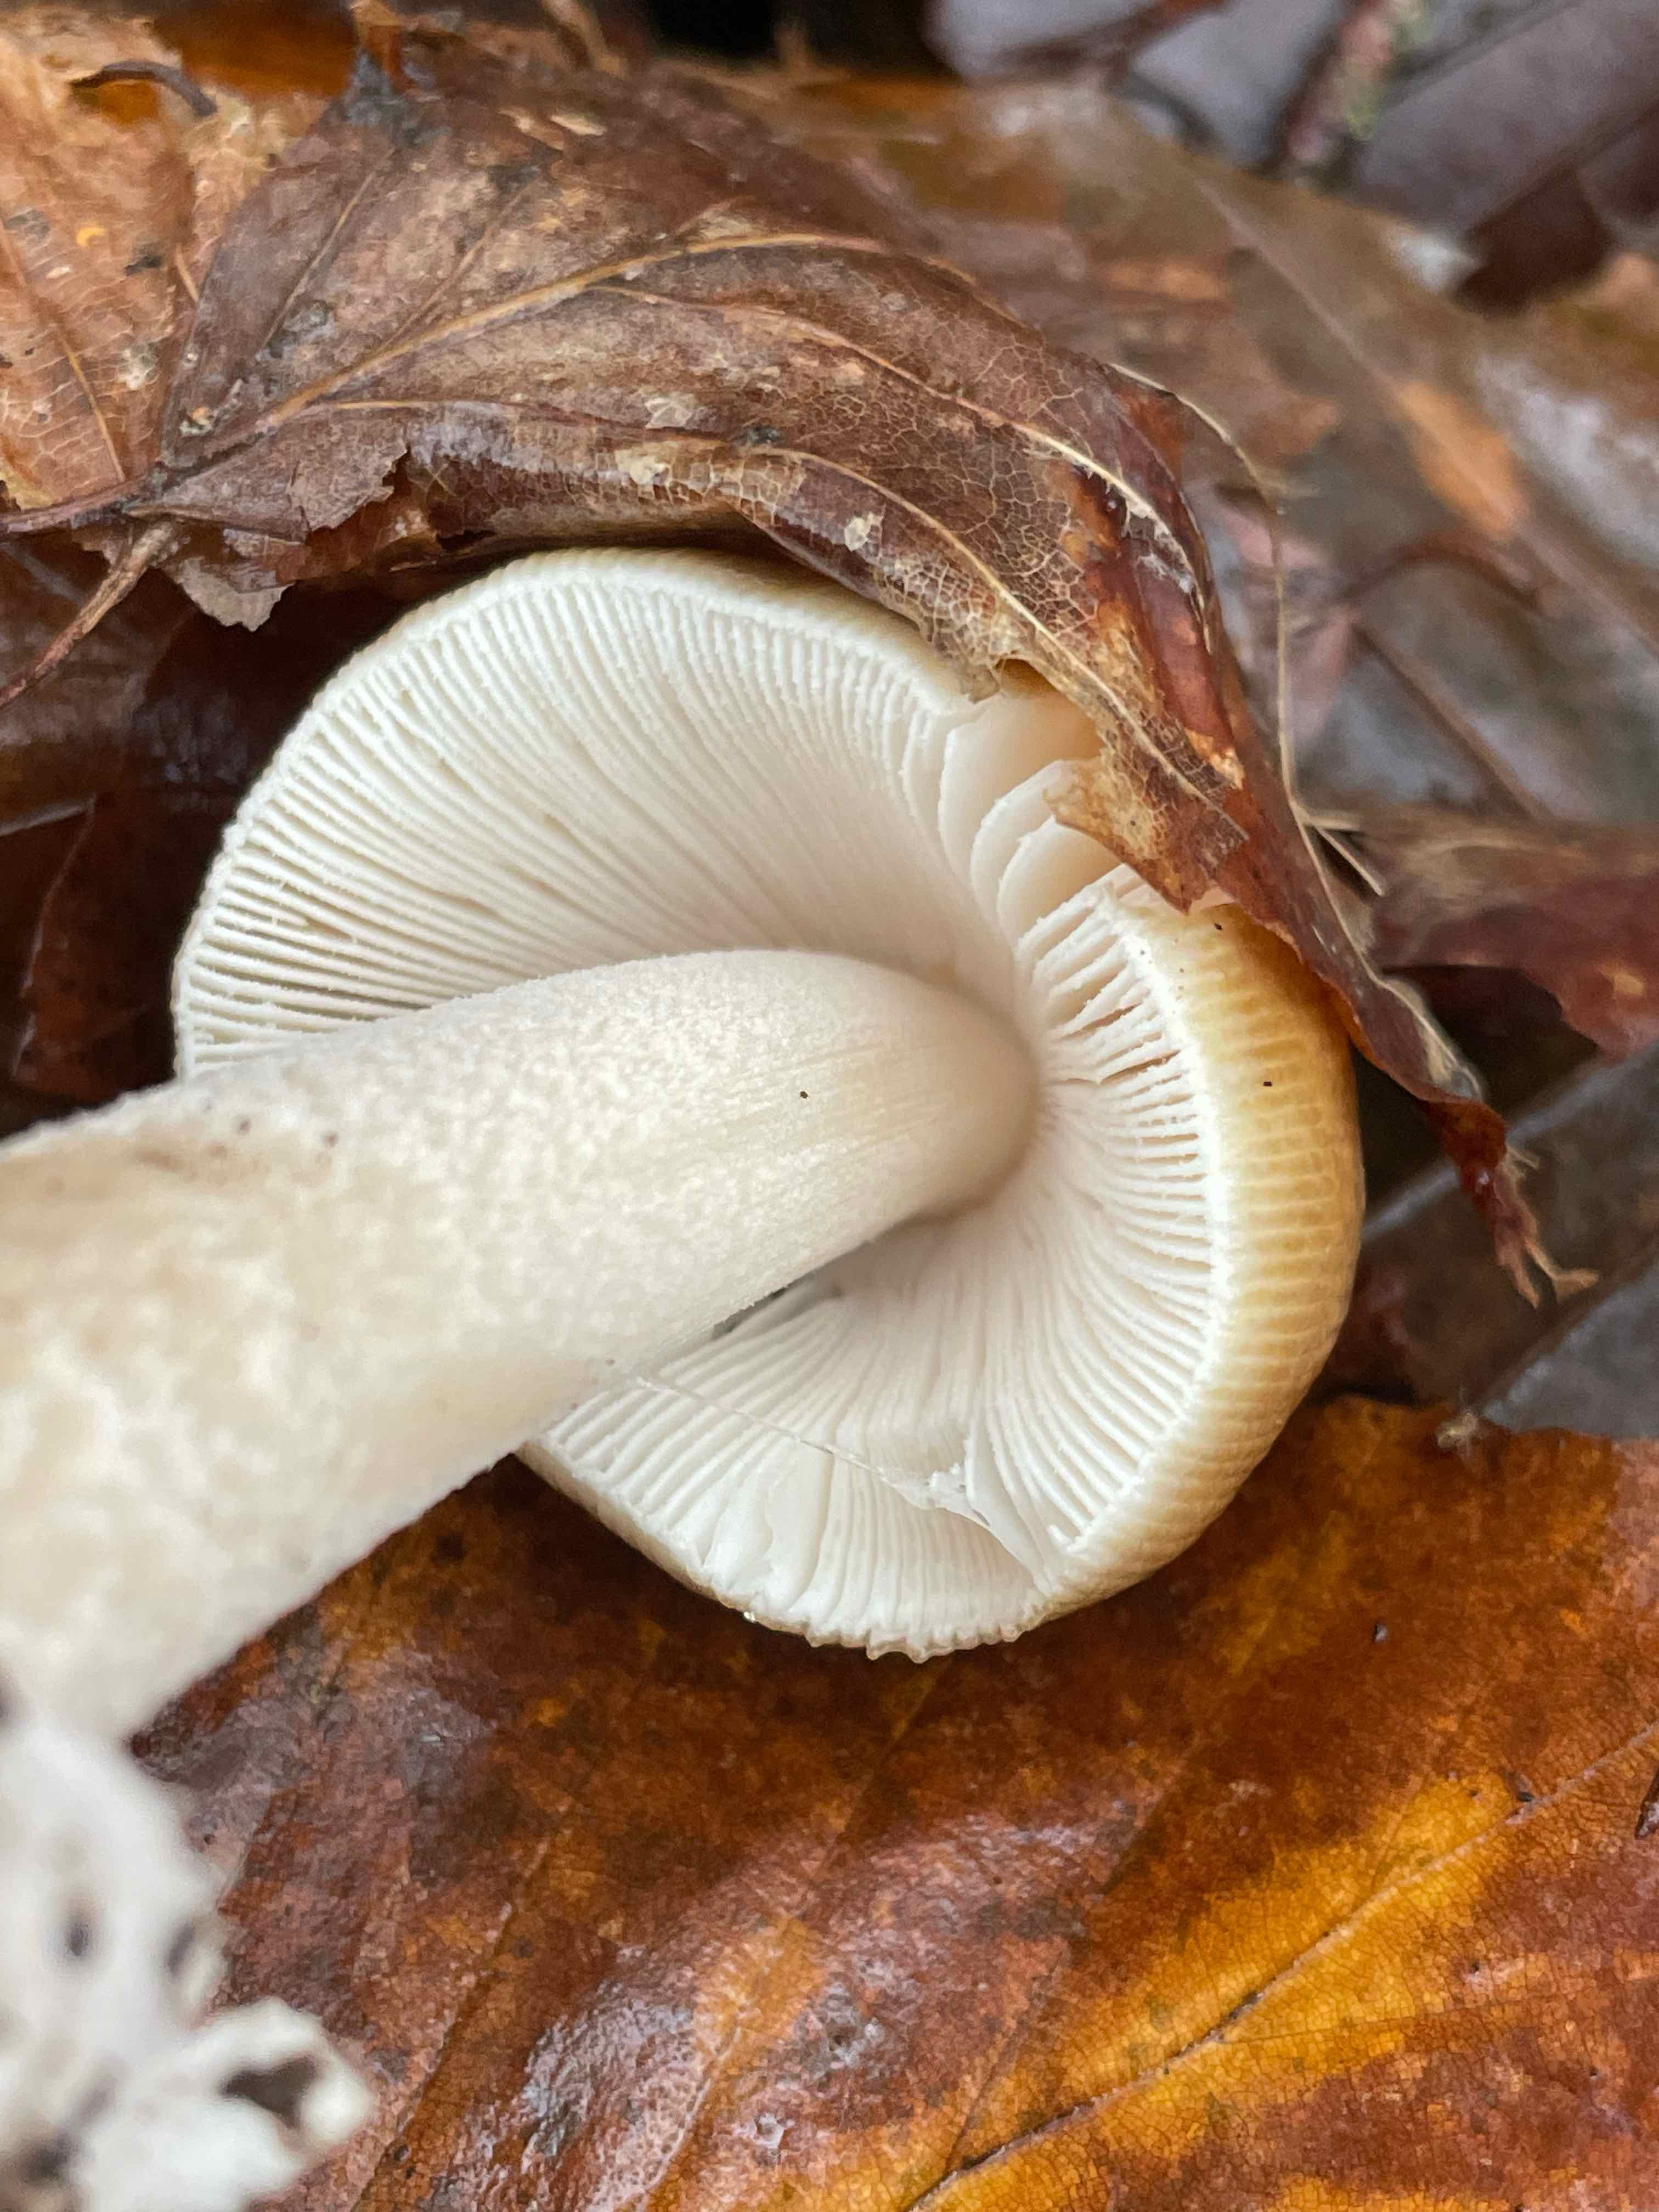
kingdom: Fungi
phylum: Basidiomycota
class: Agaricomycetes
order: Agaricales
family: Amanitaceae
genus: Amanita
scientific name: Amanita
